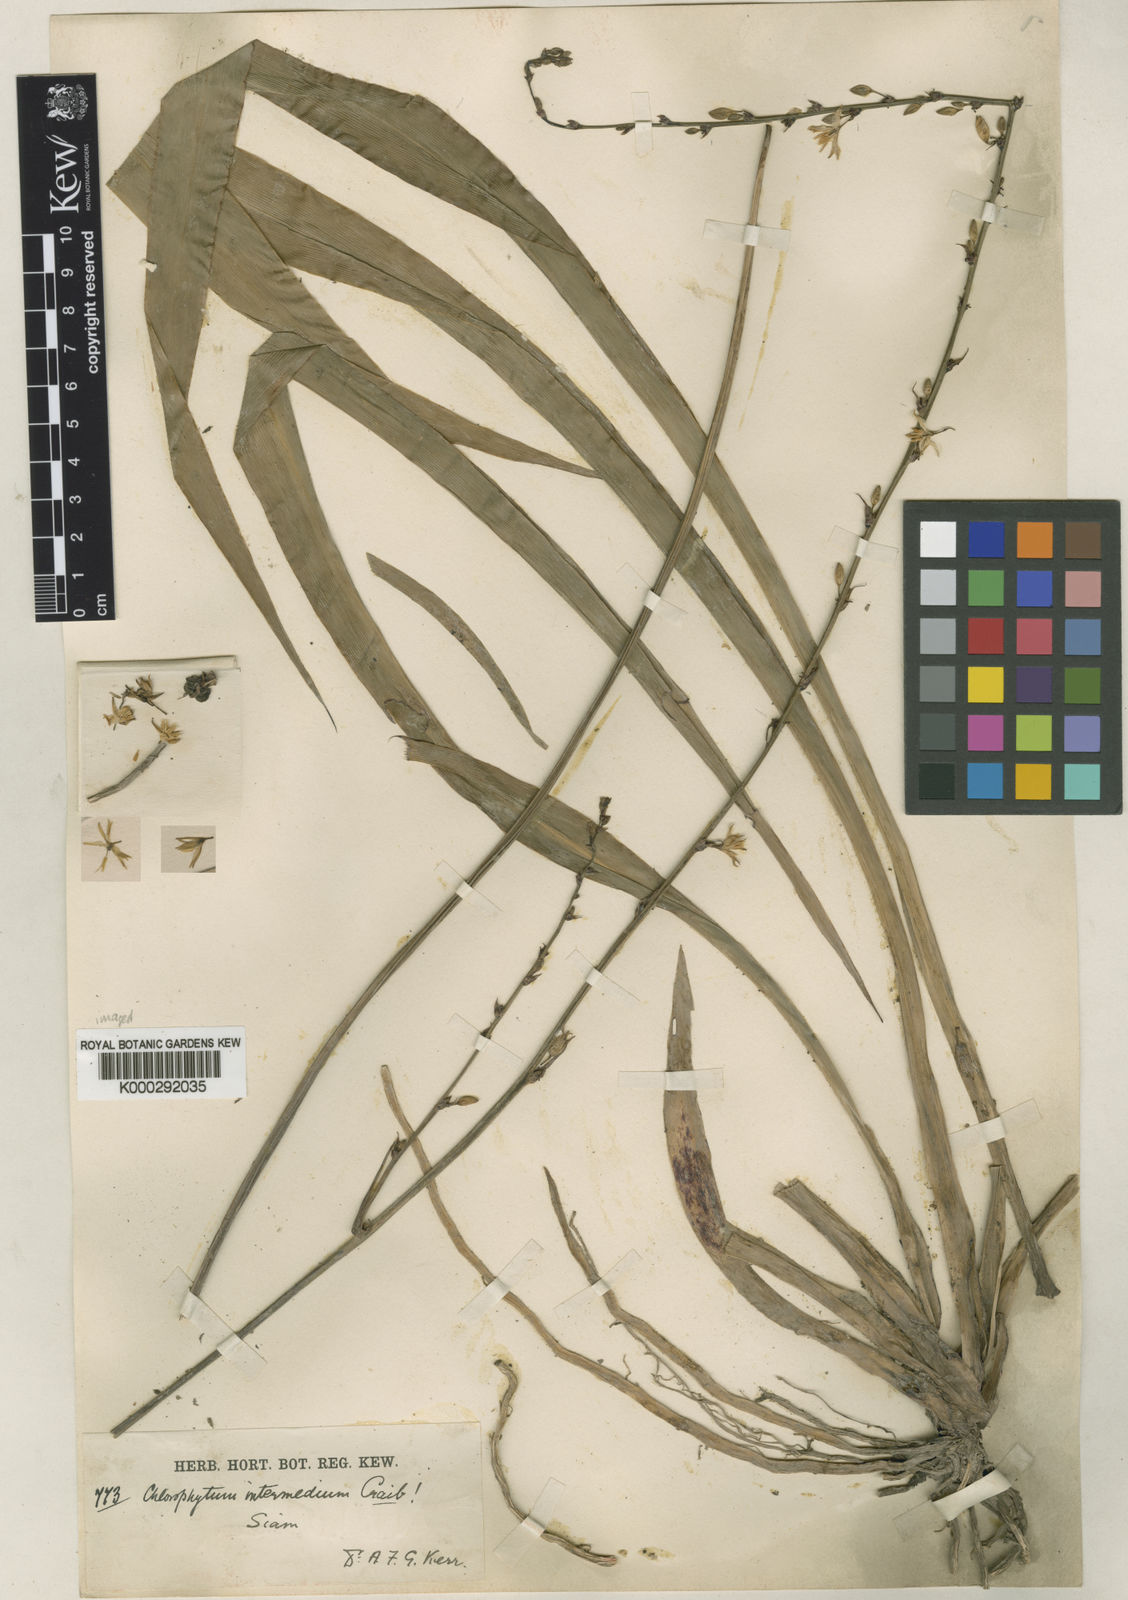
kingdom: Plantae
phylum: Tracheophyta
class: Liliopsida
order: Asparagales
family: Asparagaceae
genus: Chlorophytum
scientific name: Chlorophytum intermedium
